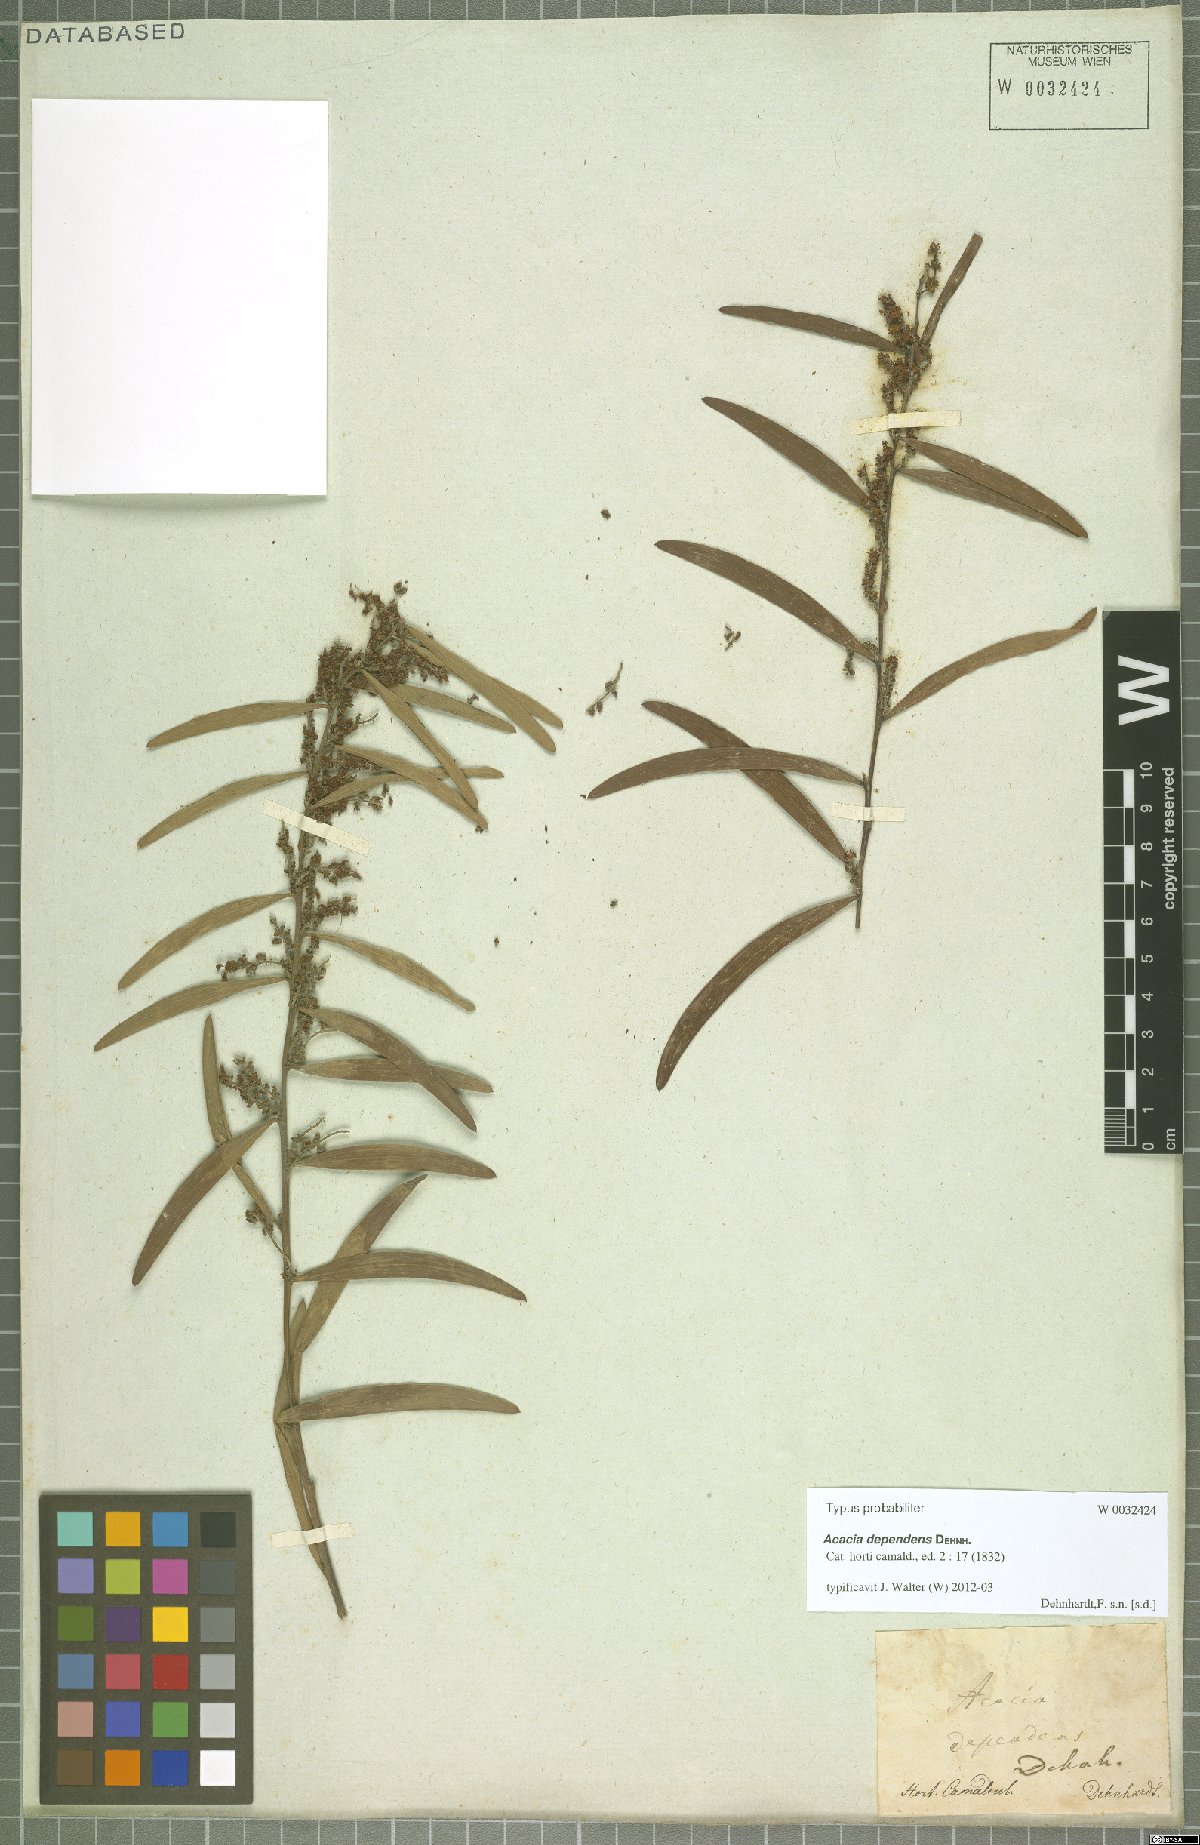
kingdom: Plantae
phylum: Tracheophyta
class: Magnoliopsida
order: Fabales
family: Fabaceae
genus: Acacia
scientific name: Acacia dependens
